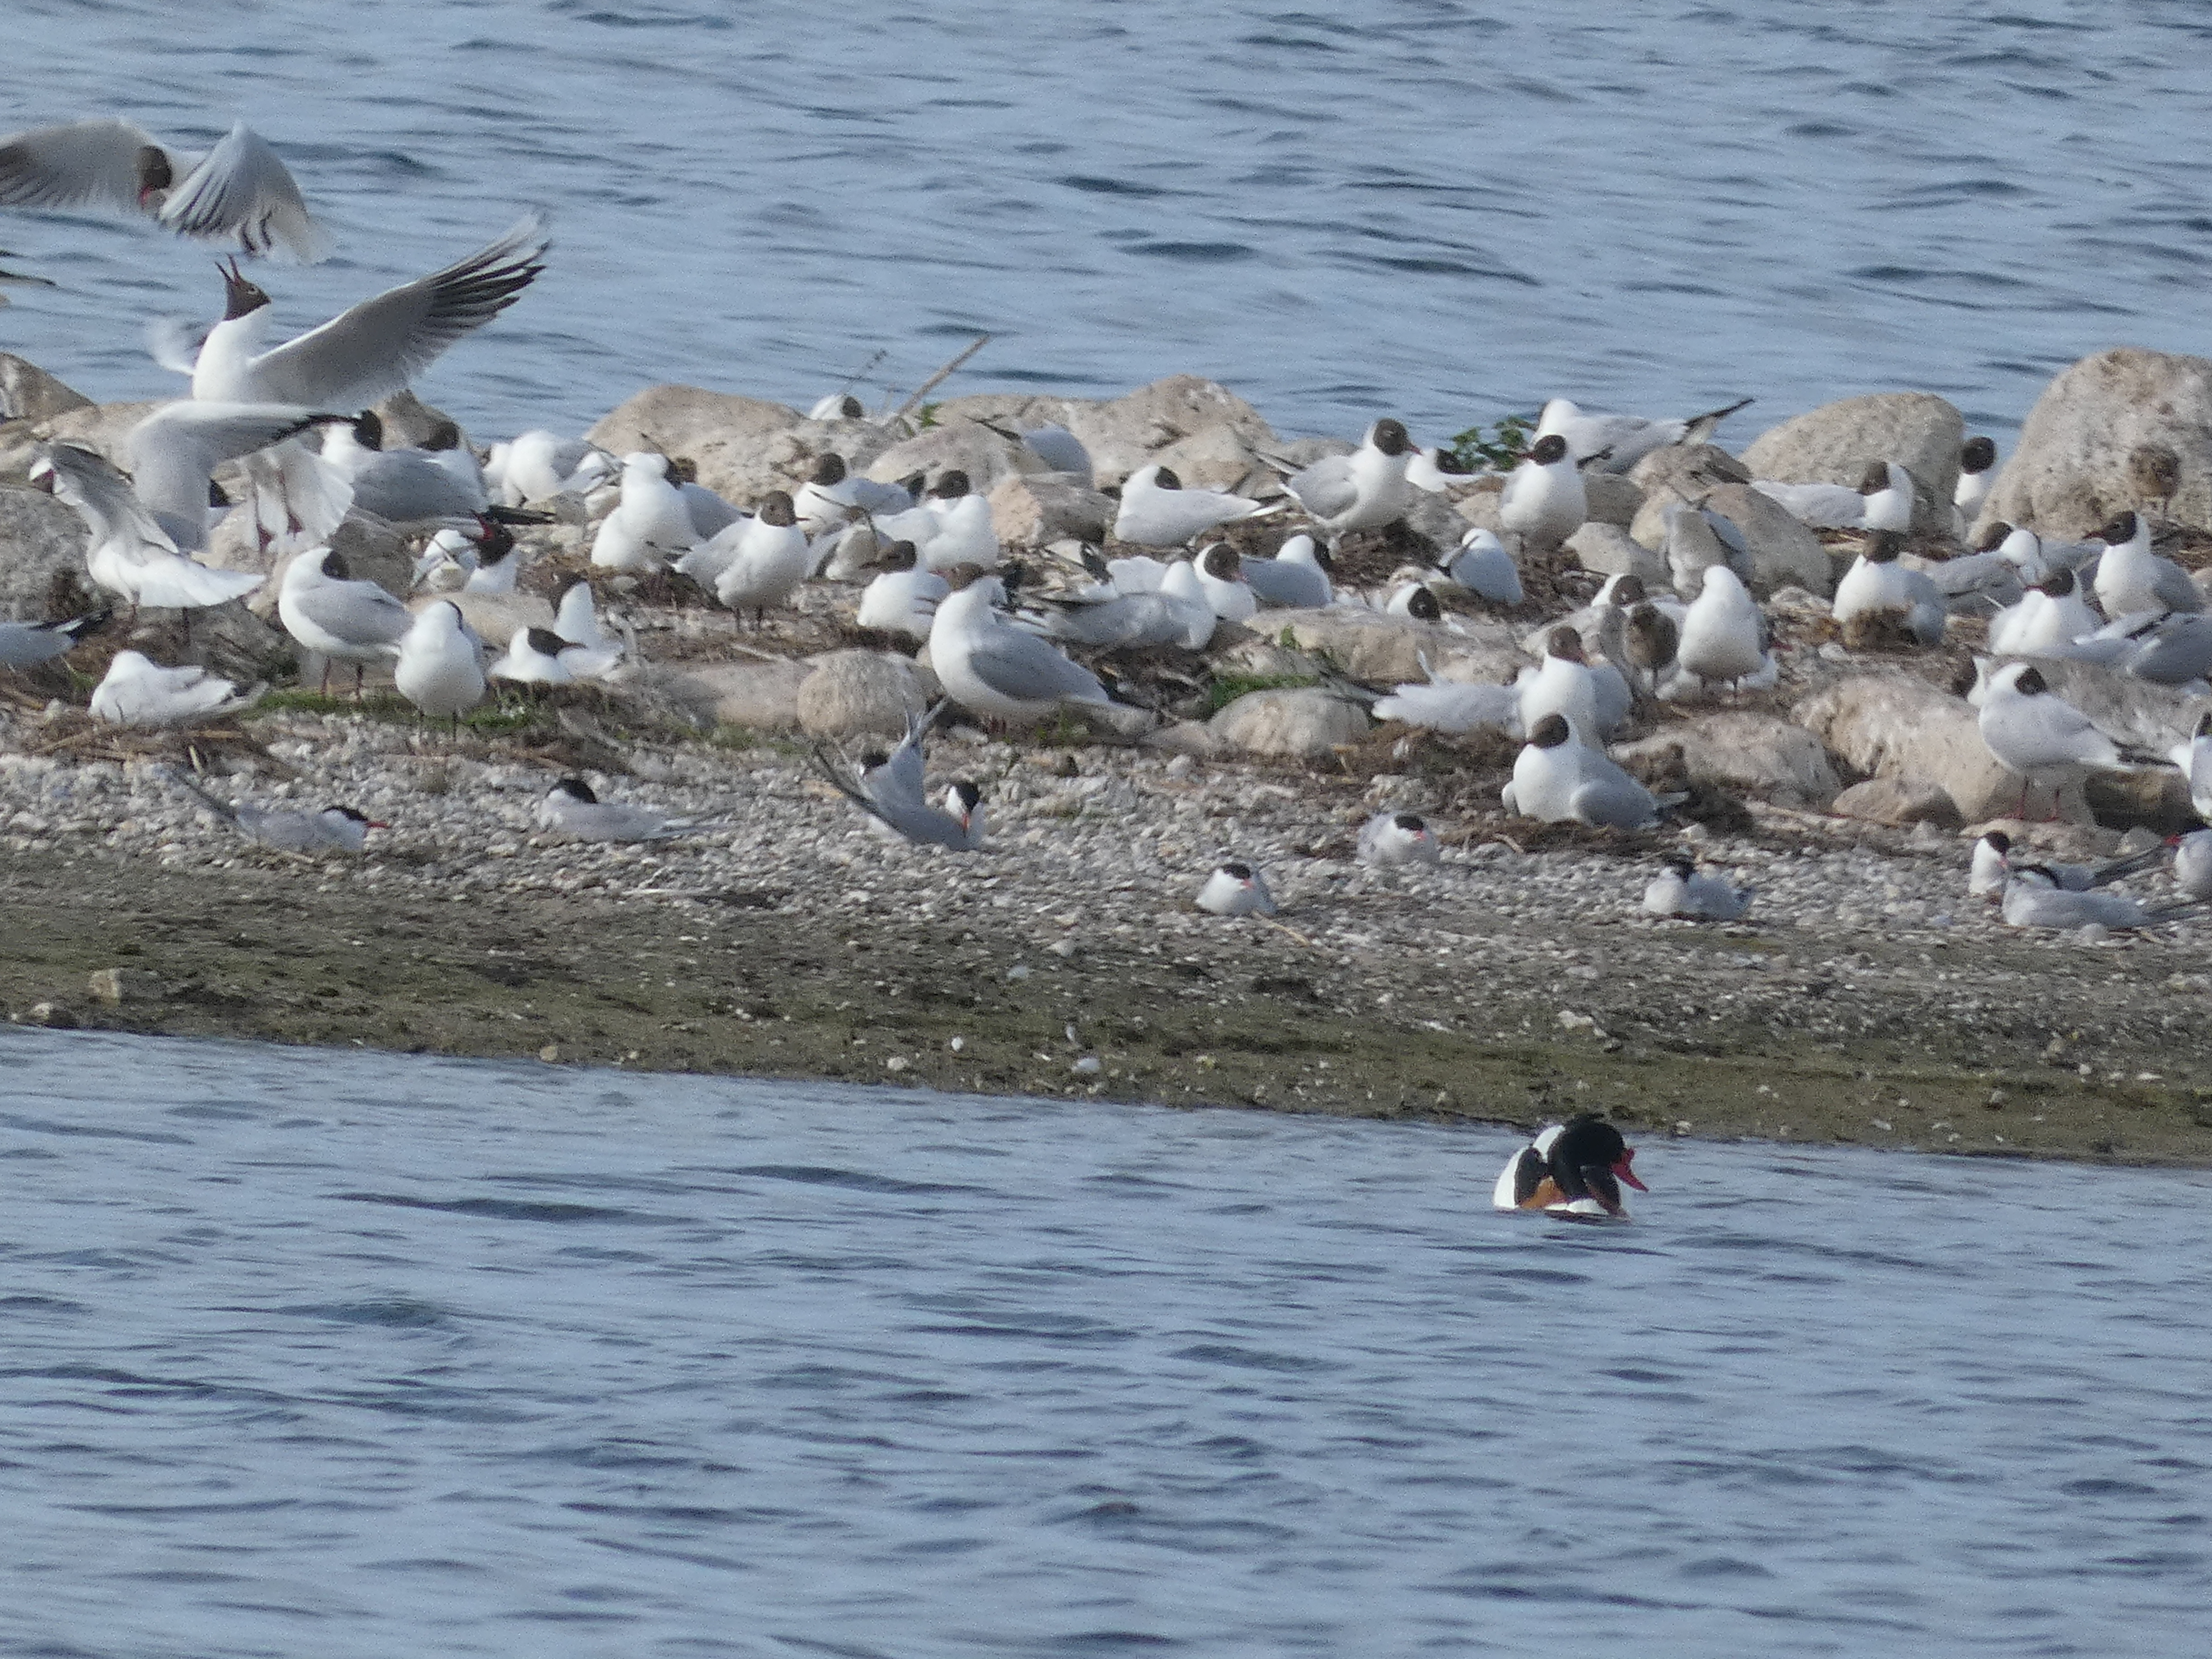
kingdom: Animalia
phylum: Chordata
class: Aves
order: Anseriformes
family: Anatidae
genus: Tadorna
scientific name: Tadorna tadorna
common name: Gravand
